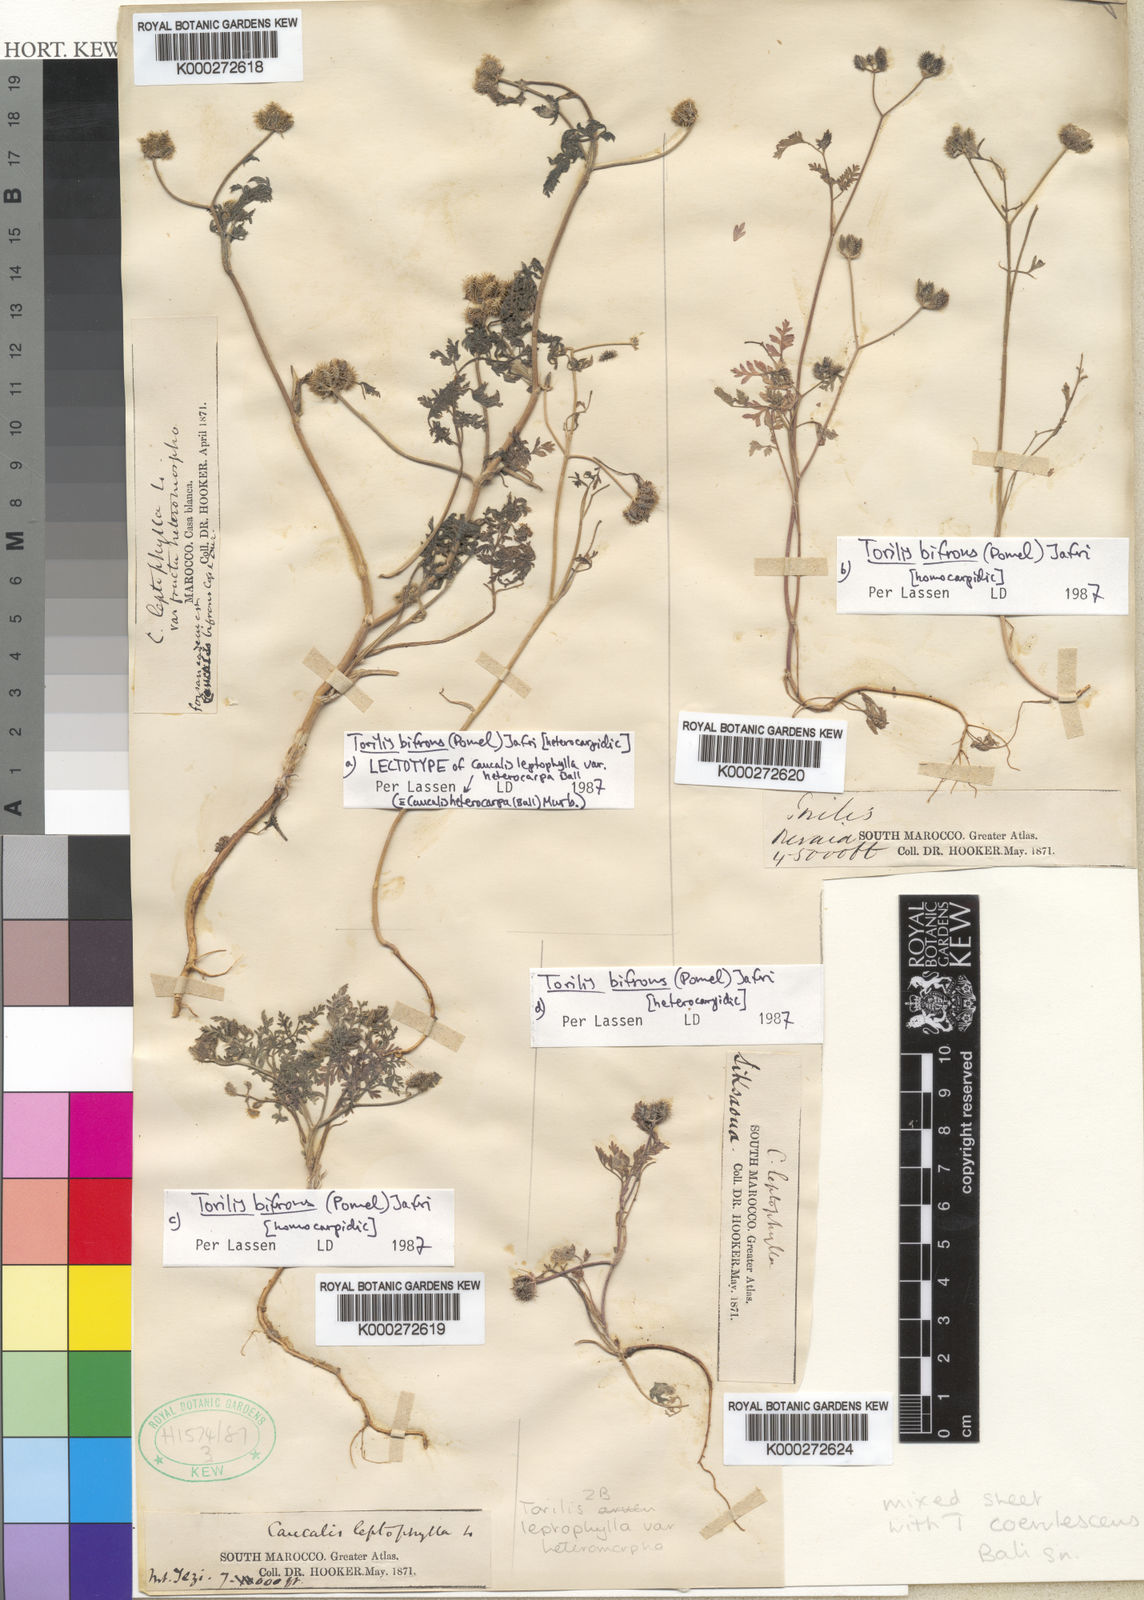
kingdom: Plantae
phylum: Tracheophyta
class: Magnoliopsida
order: Apiales
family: Apiaceae
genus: Torilis
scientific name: Torilis elongata
